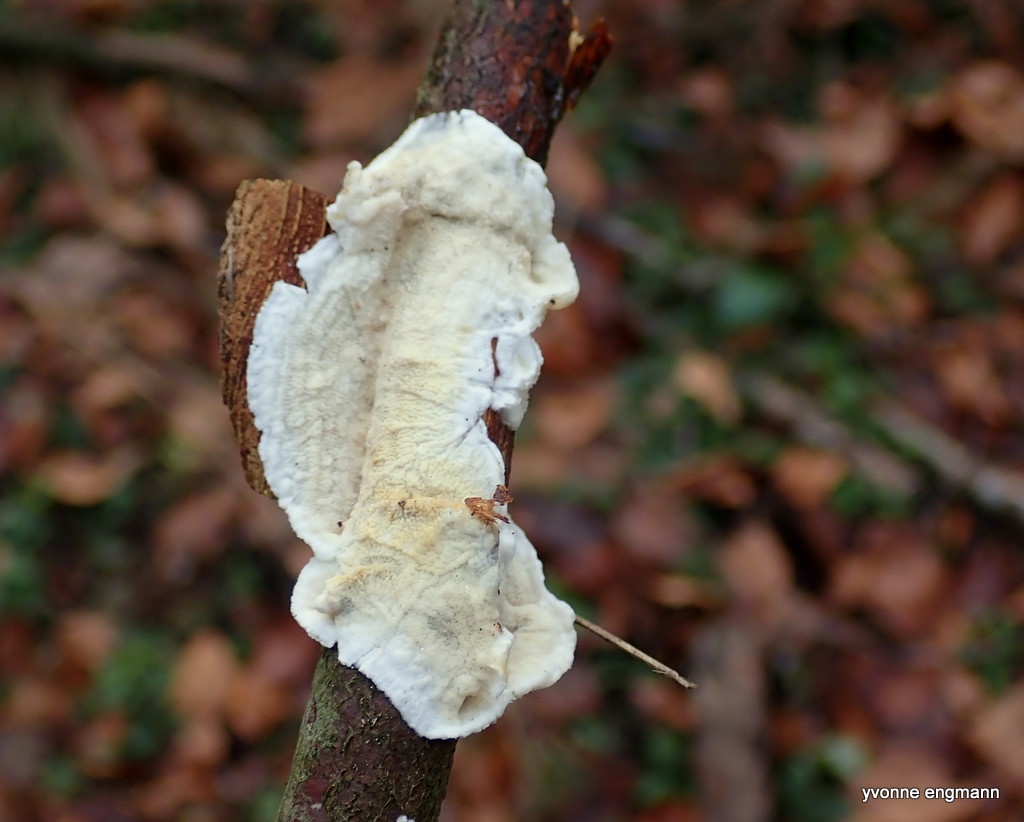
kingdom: Fungi
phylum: Basidiomycota
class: Agaricomycetes
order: Polyporales
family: Irpicaceae
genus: Byssomerulius
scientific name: Byssomerulius corium
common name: læder-åresvamp
